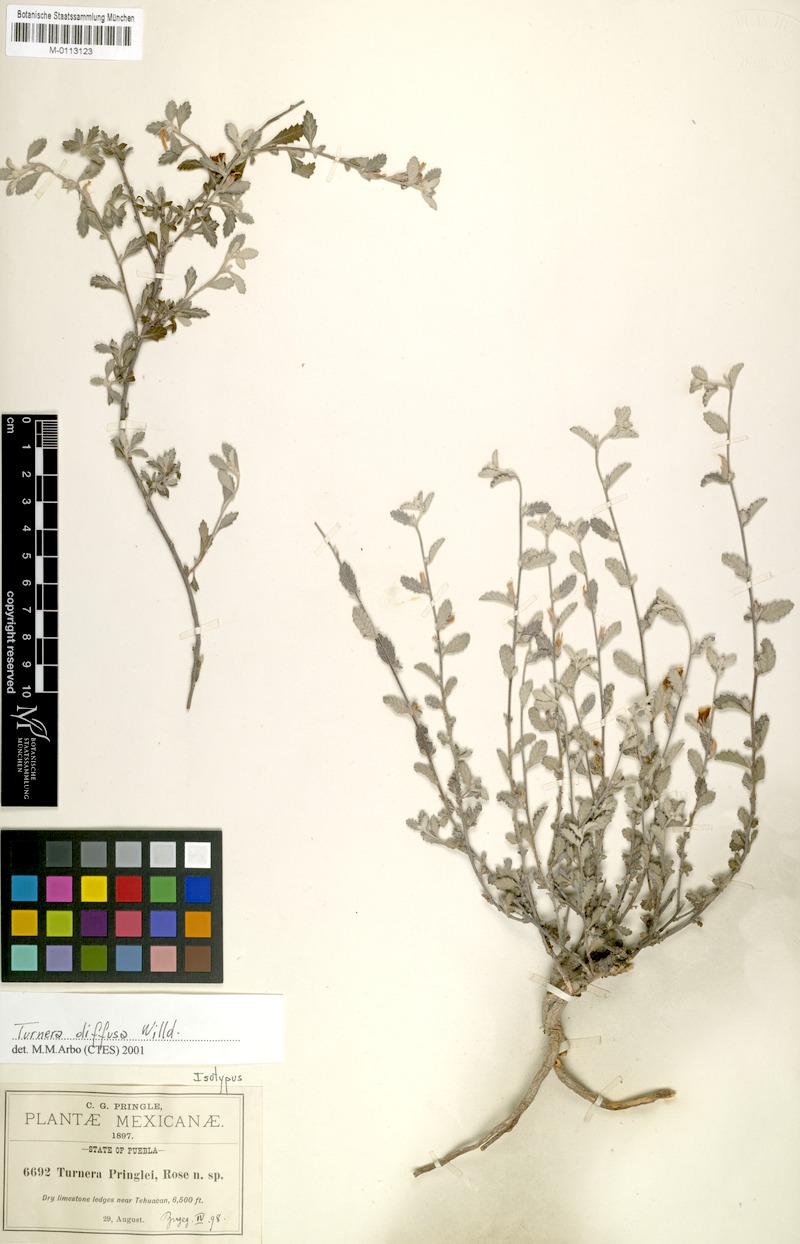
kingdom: Plantae
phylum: Tracheophyta
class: Magnoliopsida
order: Malpighiales
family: Turneraceae
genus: Turnera
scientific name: Turnera diffusa
